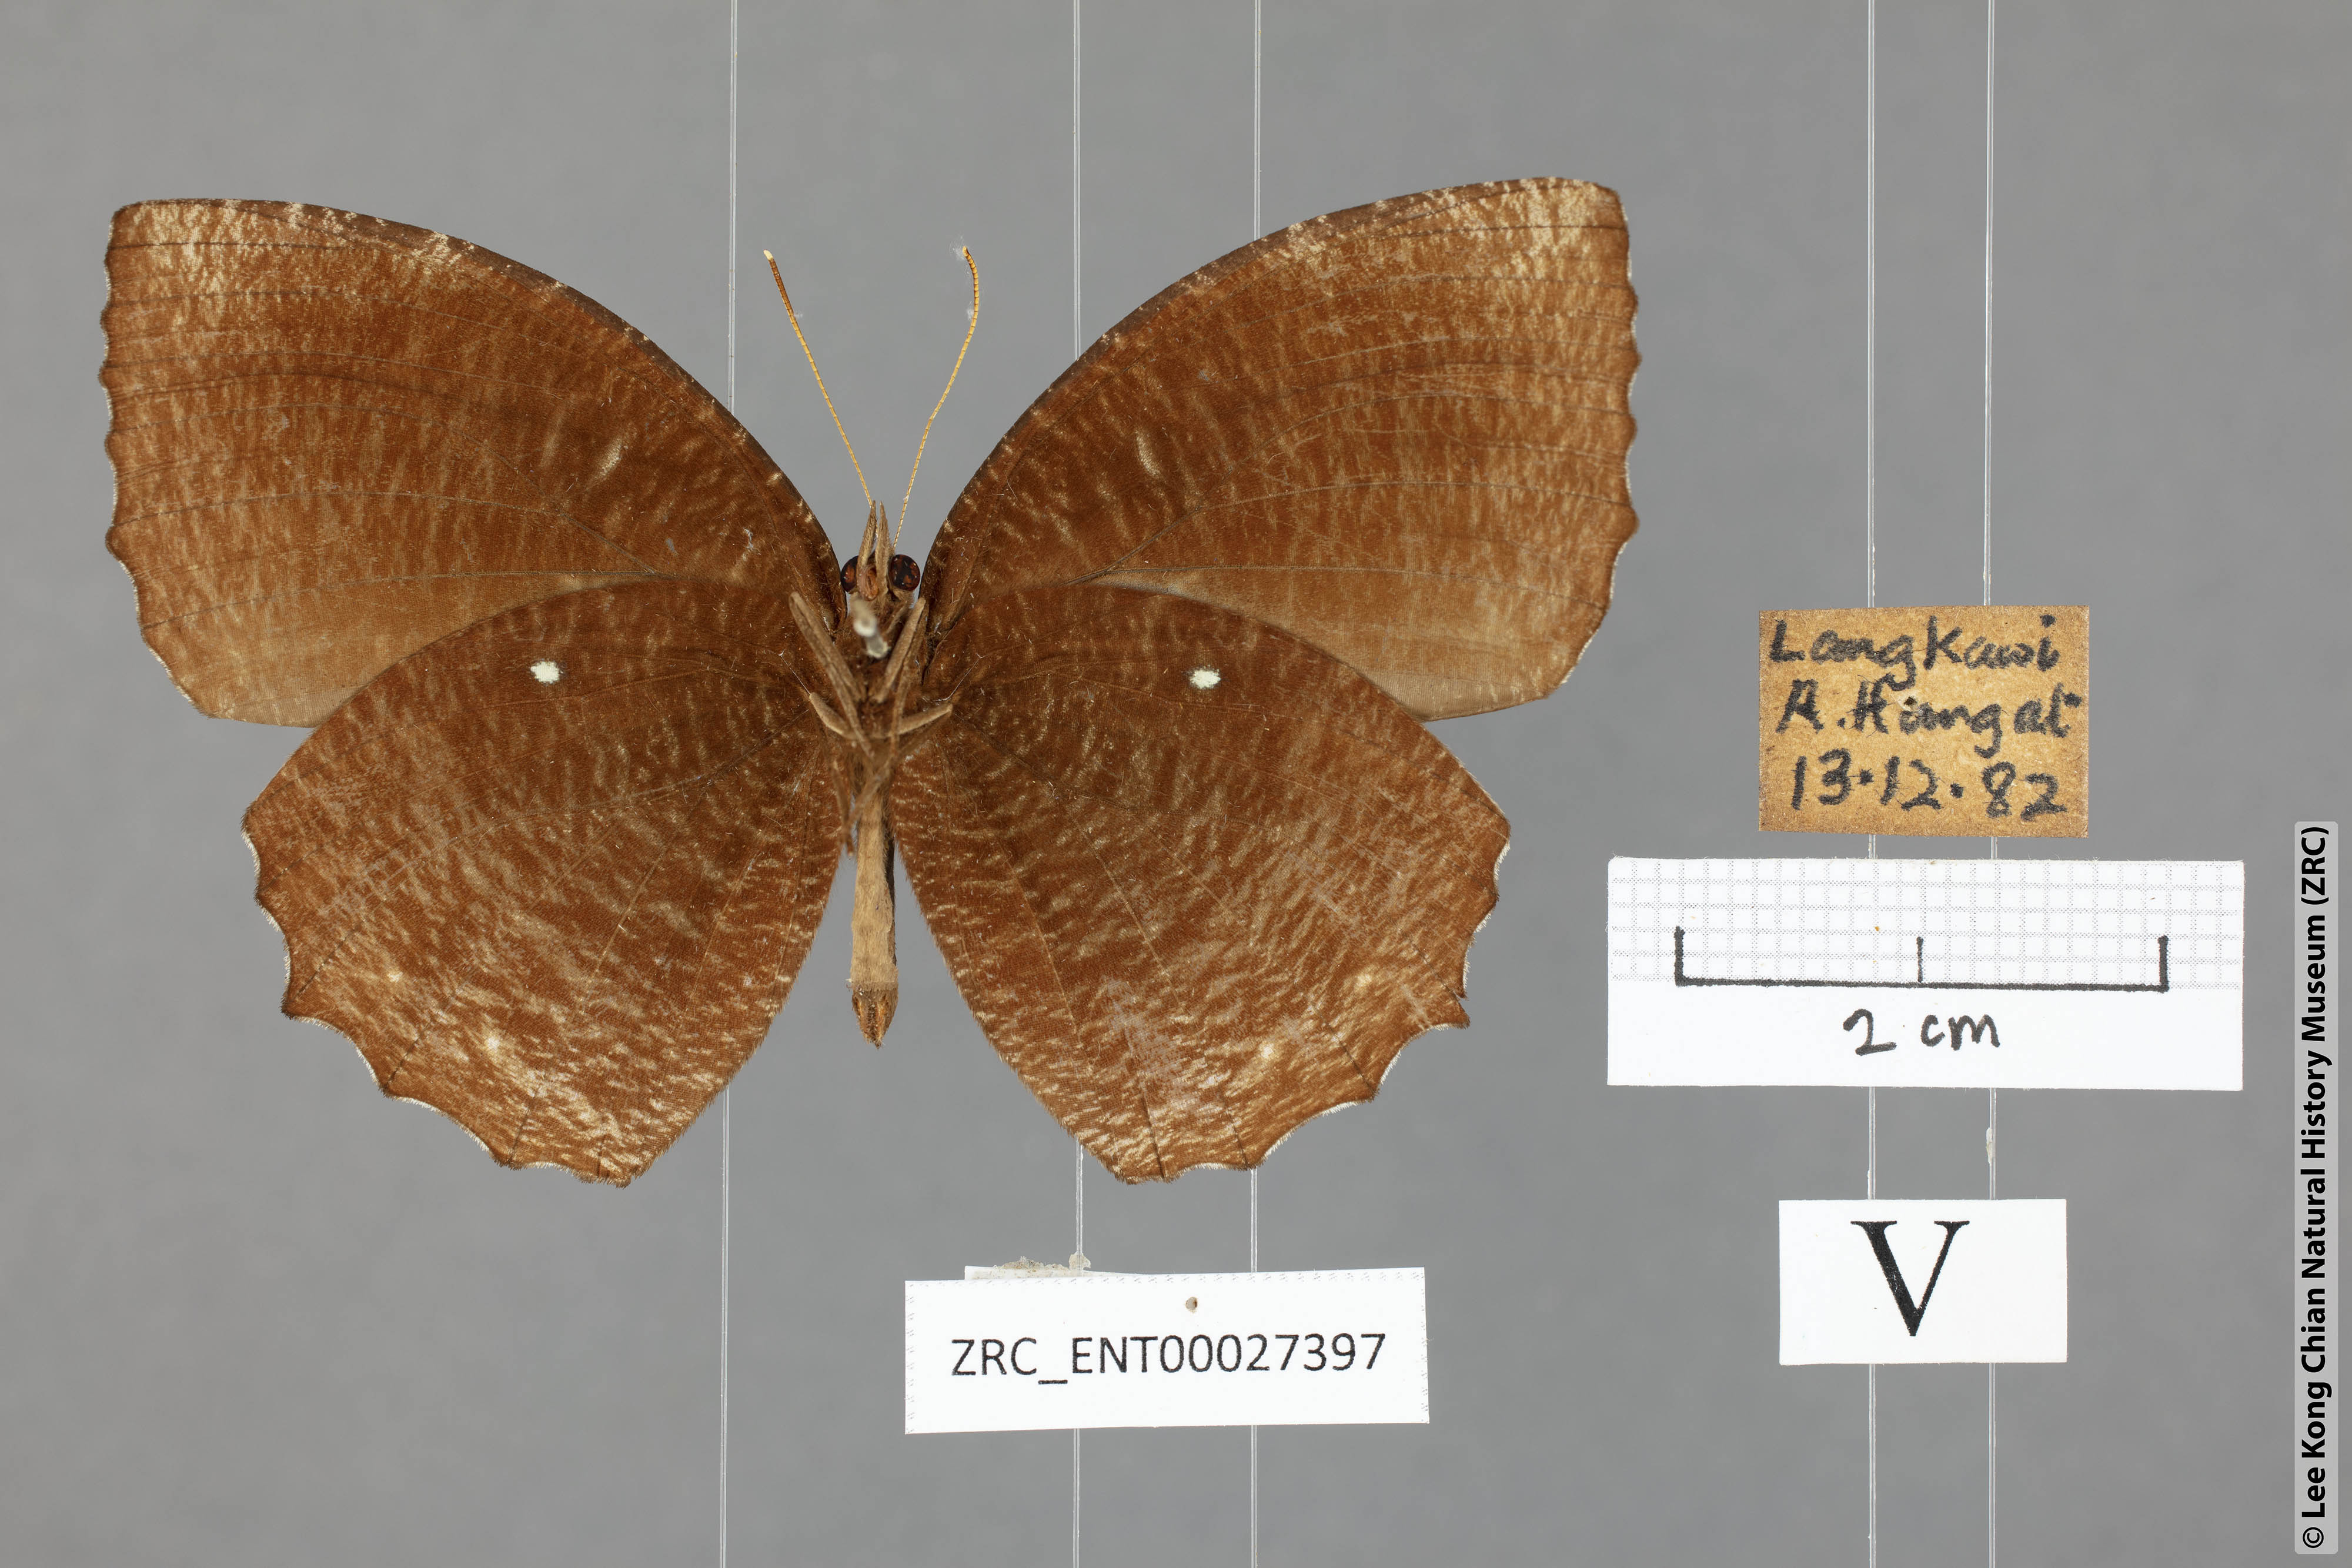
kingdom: Animalia
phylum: Arthropoda
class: Insecta
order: Lepidoptera
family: Nymphalidae
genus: Elymnias
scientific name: Elymnias hypermnestra
